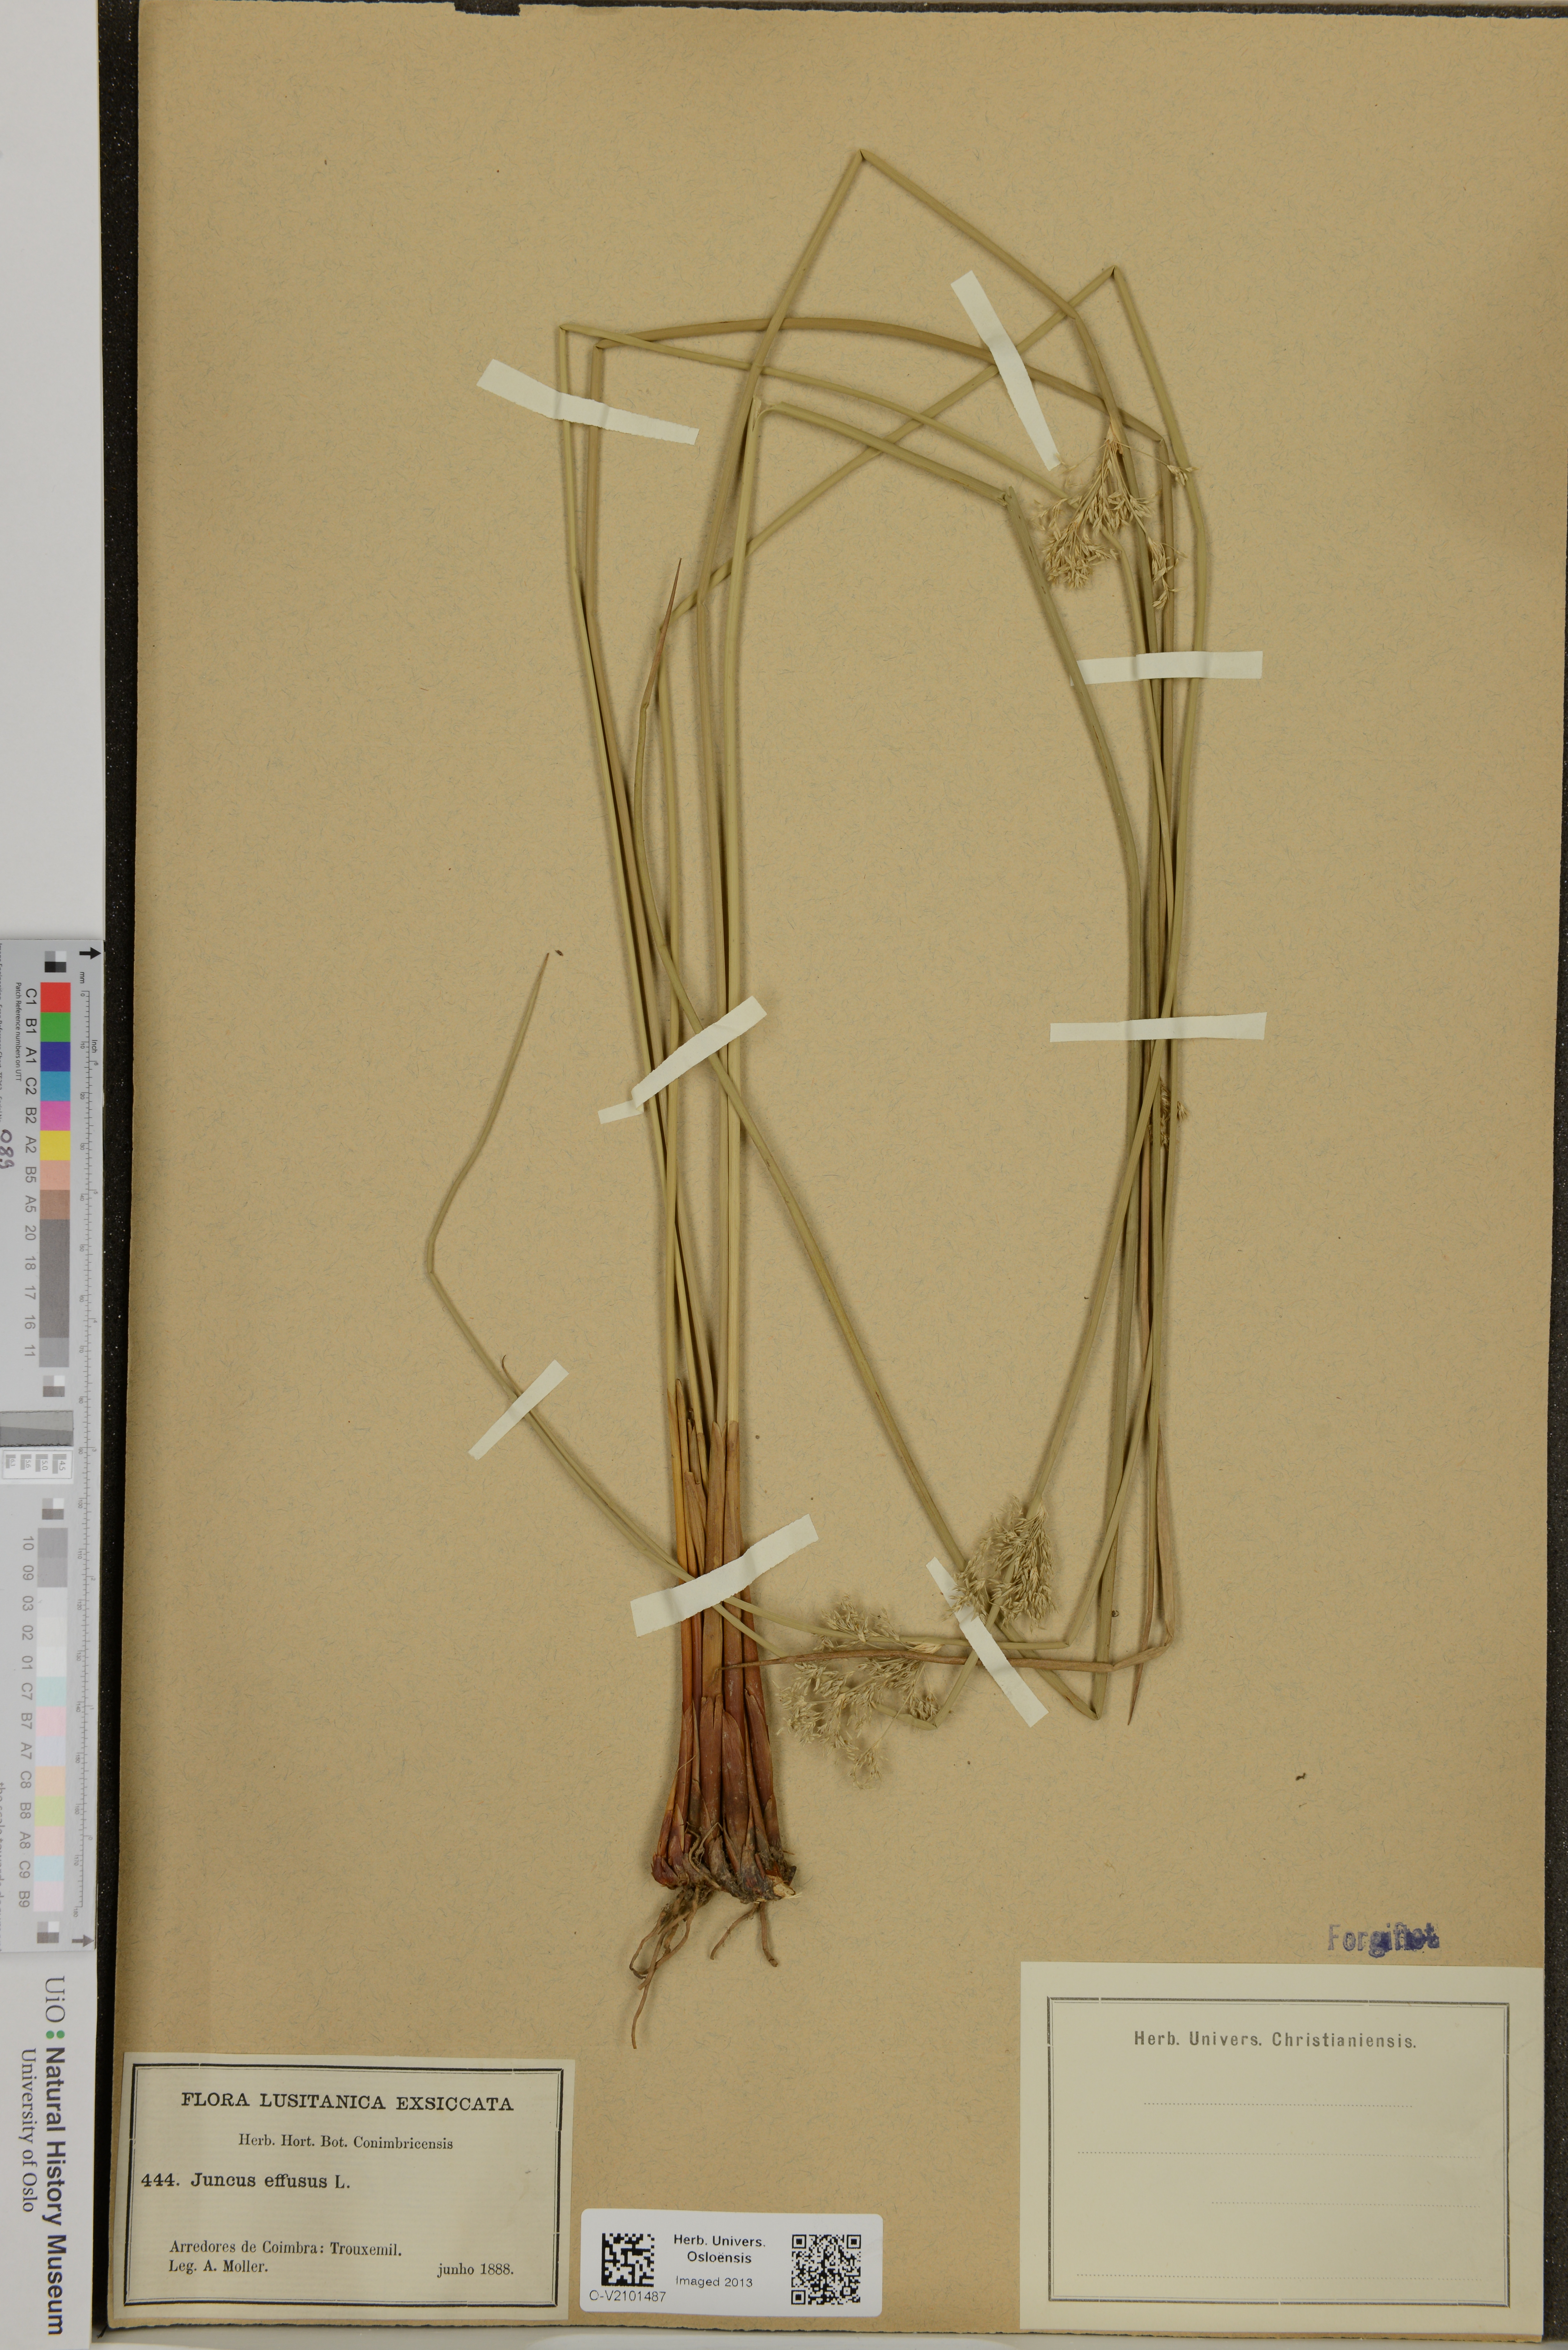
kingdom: Plantae
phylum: Tracheophyta
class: Liliopsida
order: Poales
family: Juncaceae
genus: Juncus
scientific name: Juncus effusus
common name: Soft rush
